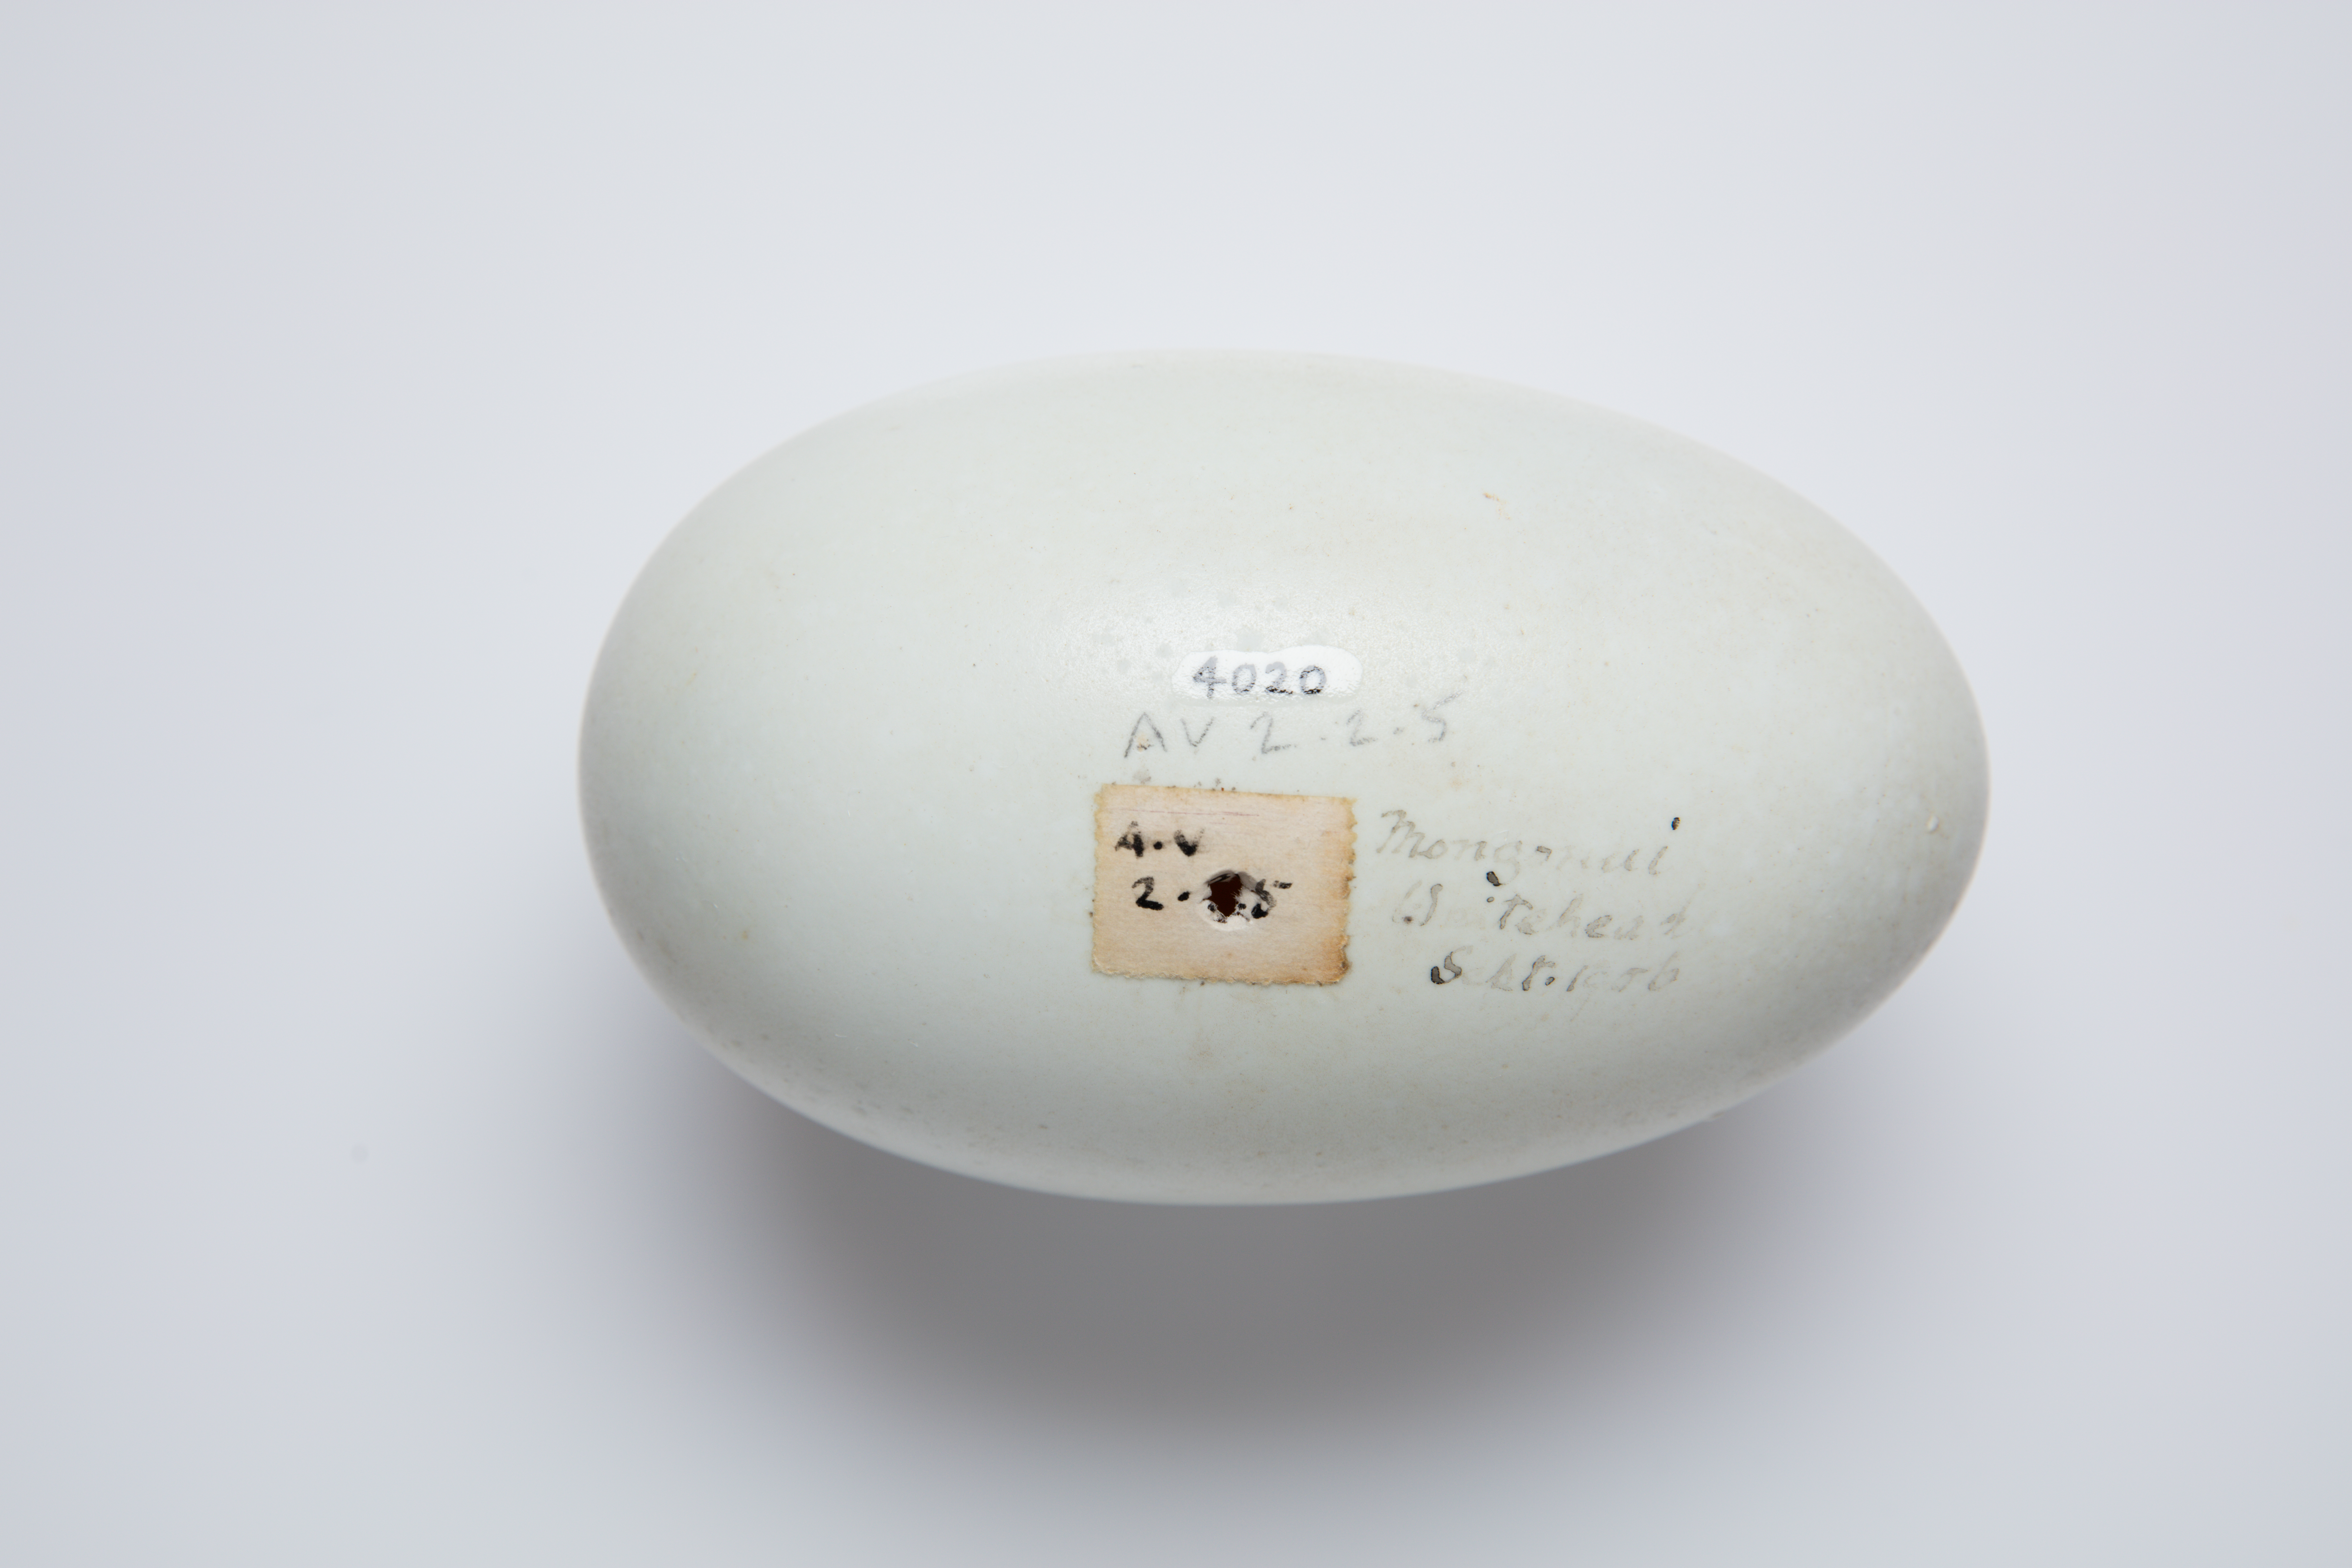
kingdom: Animalia
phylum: Chordata
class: Aves
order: Apterygiformes
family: Apterygidae
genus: Apteryx
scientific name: Apteryx mantelli
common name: North island brown kiwi
